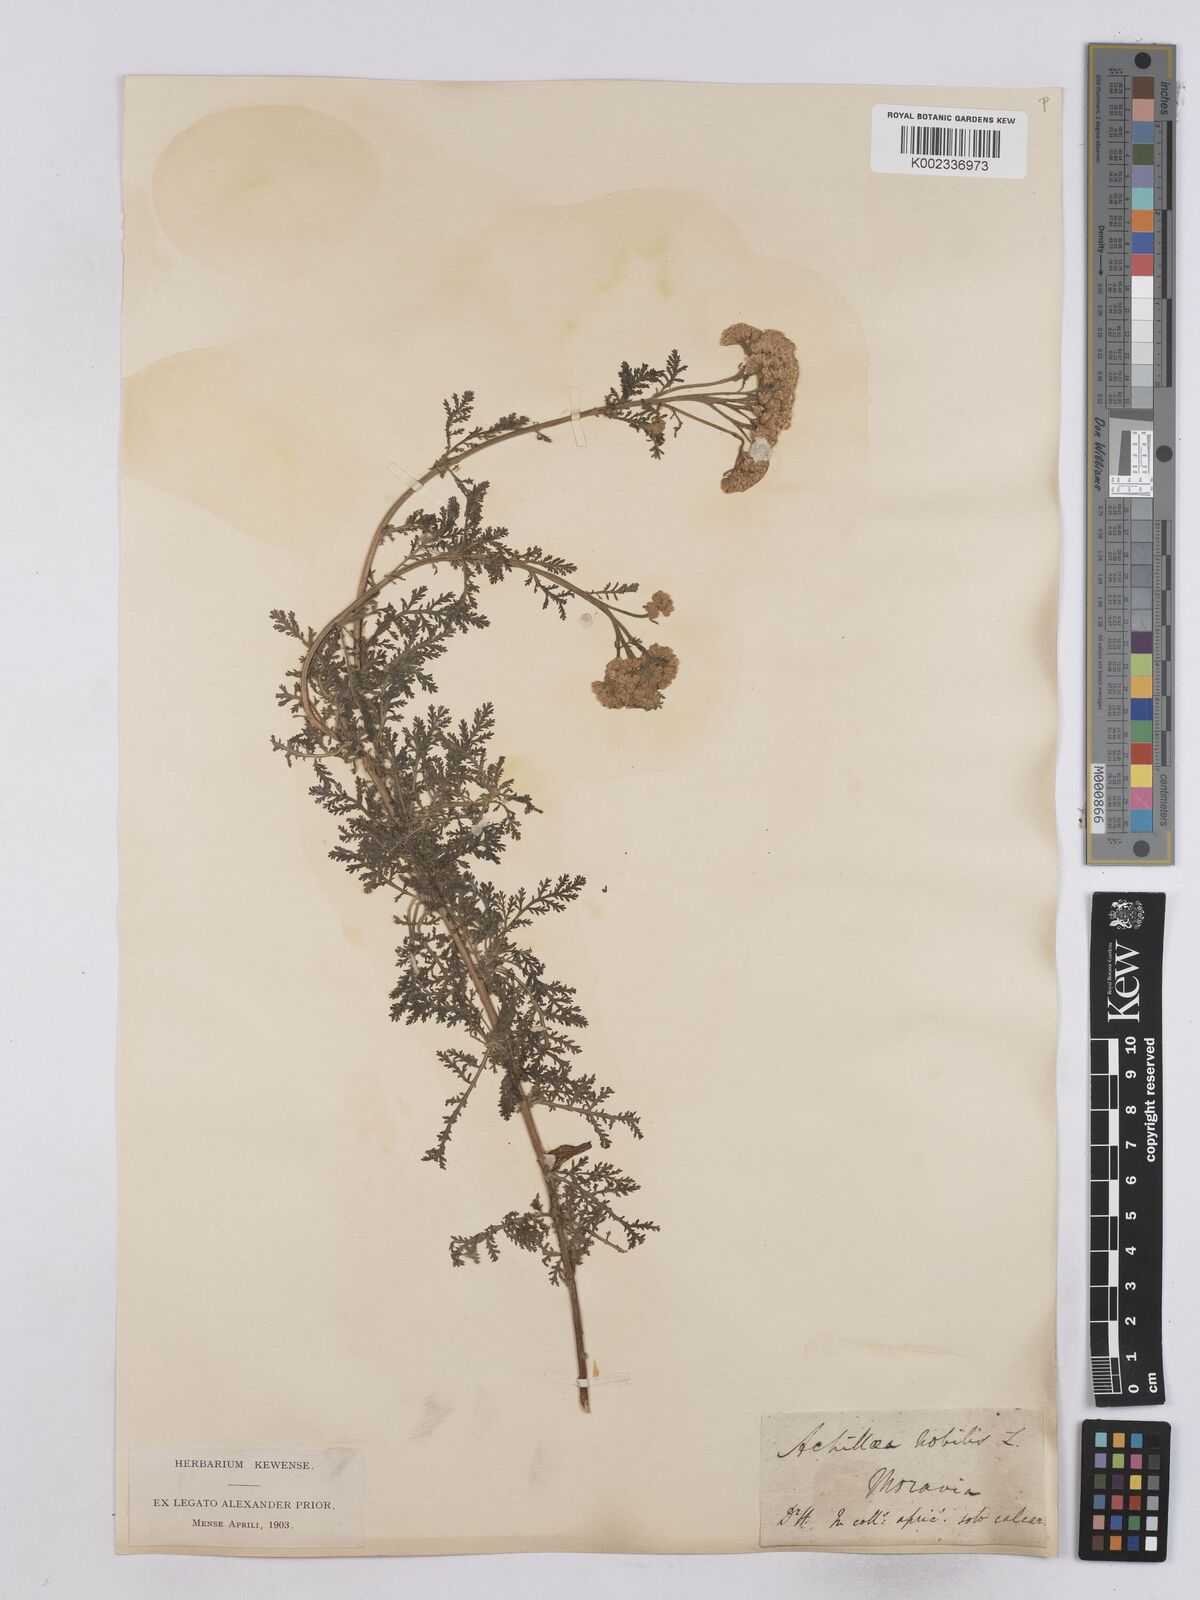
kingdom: Plantae
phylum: Tracheophyta
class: Magnoliopsida
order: Asterales
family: Asteraceae
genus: Achillea
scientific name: Achillea nobilis
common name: Noble yarrow
